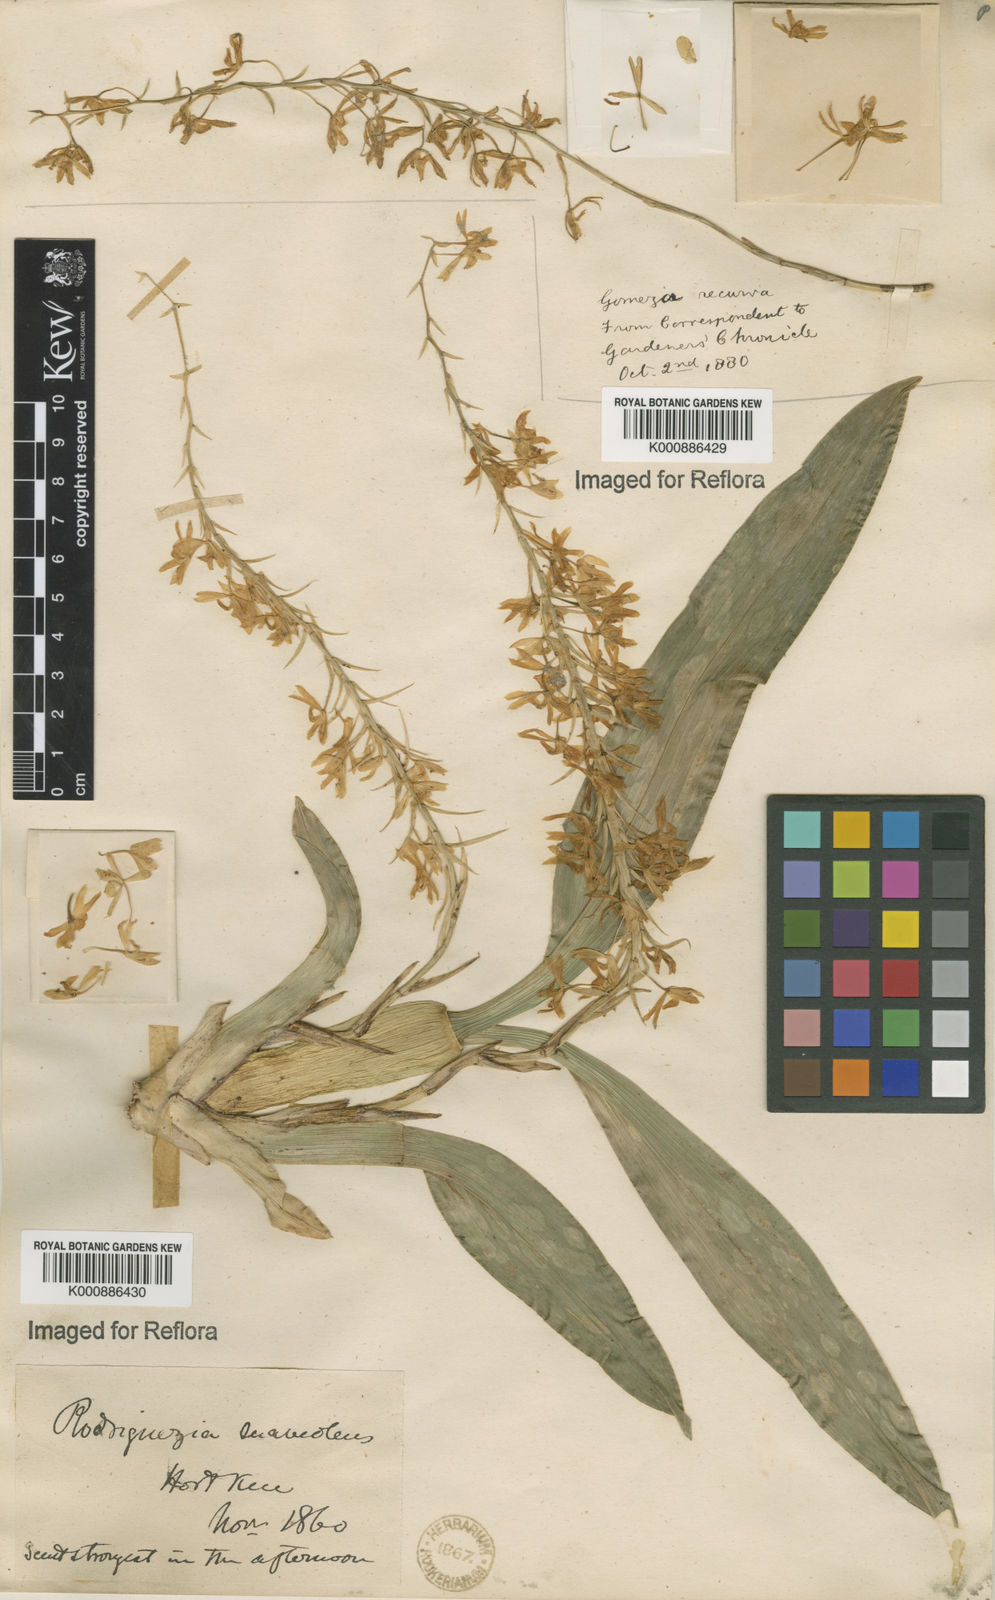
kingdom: Plantae
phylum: Tracheophyta
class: Liliopsida
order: Asparagales
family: Orchidaceae
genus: Gomesa
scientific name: Gomesa recurva
